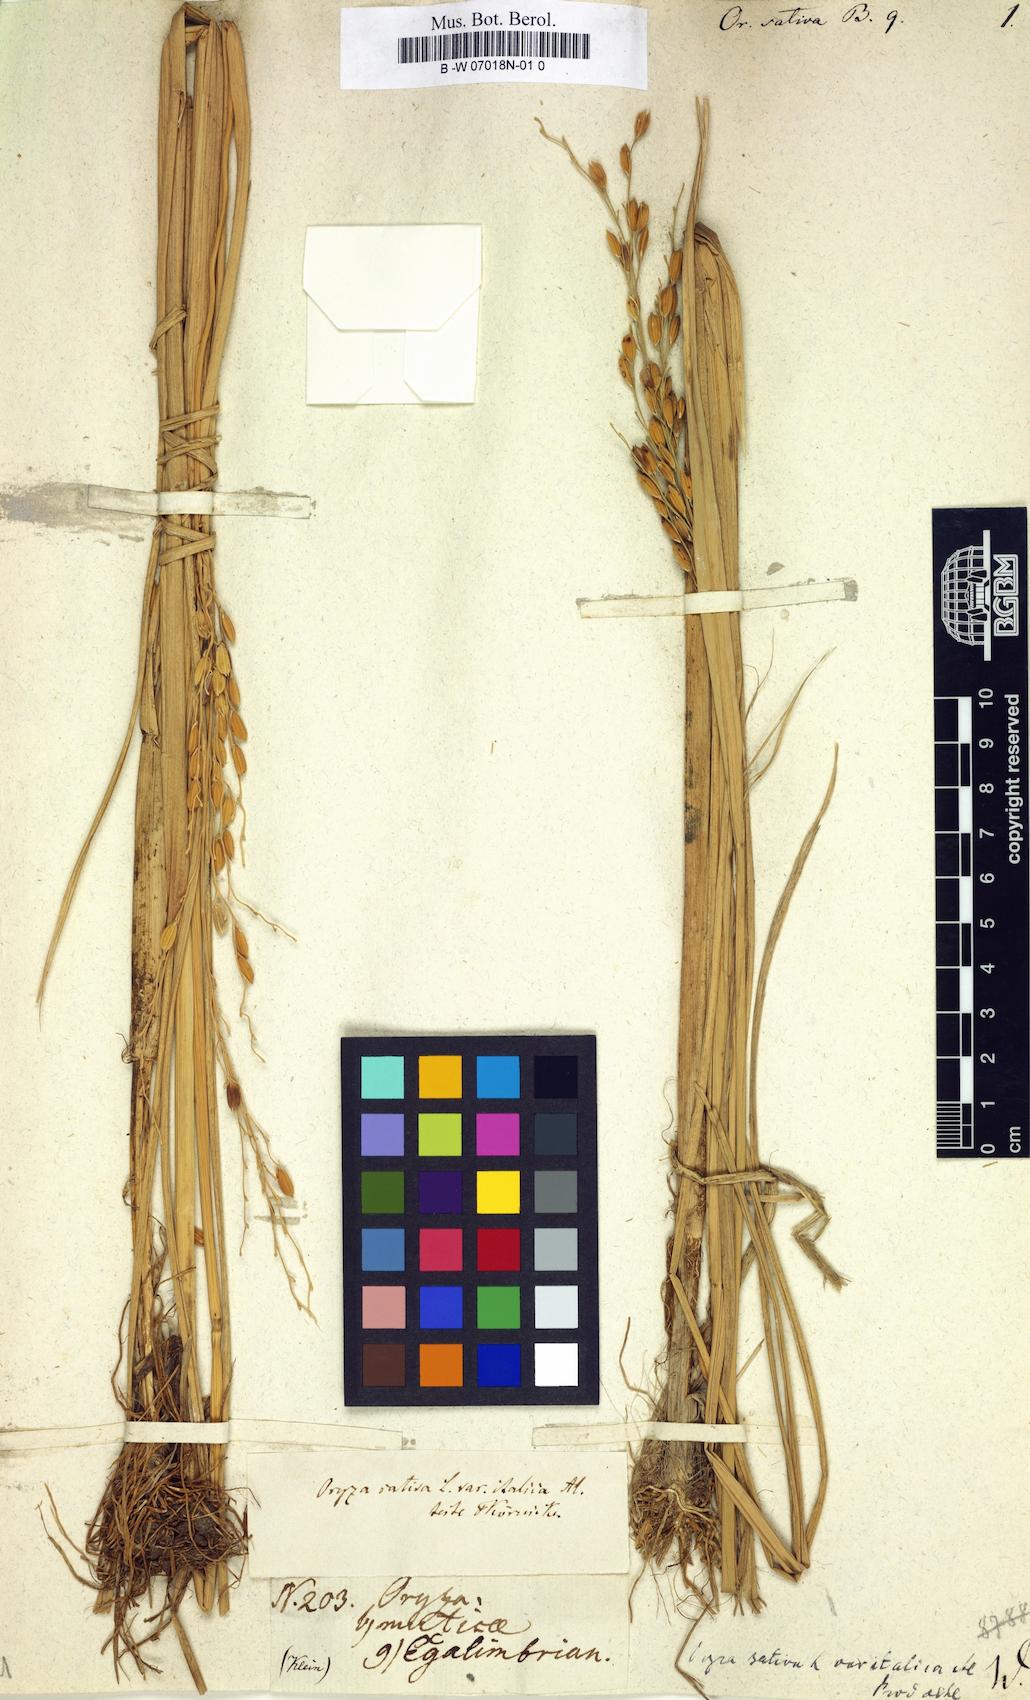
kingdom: Plantae
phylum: Tracheophyta
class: Liliopsida
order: Poales
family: Poaceae
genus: Oryza
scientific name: Oryza sativa
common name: Rice
